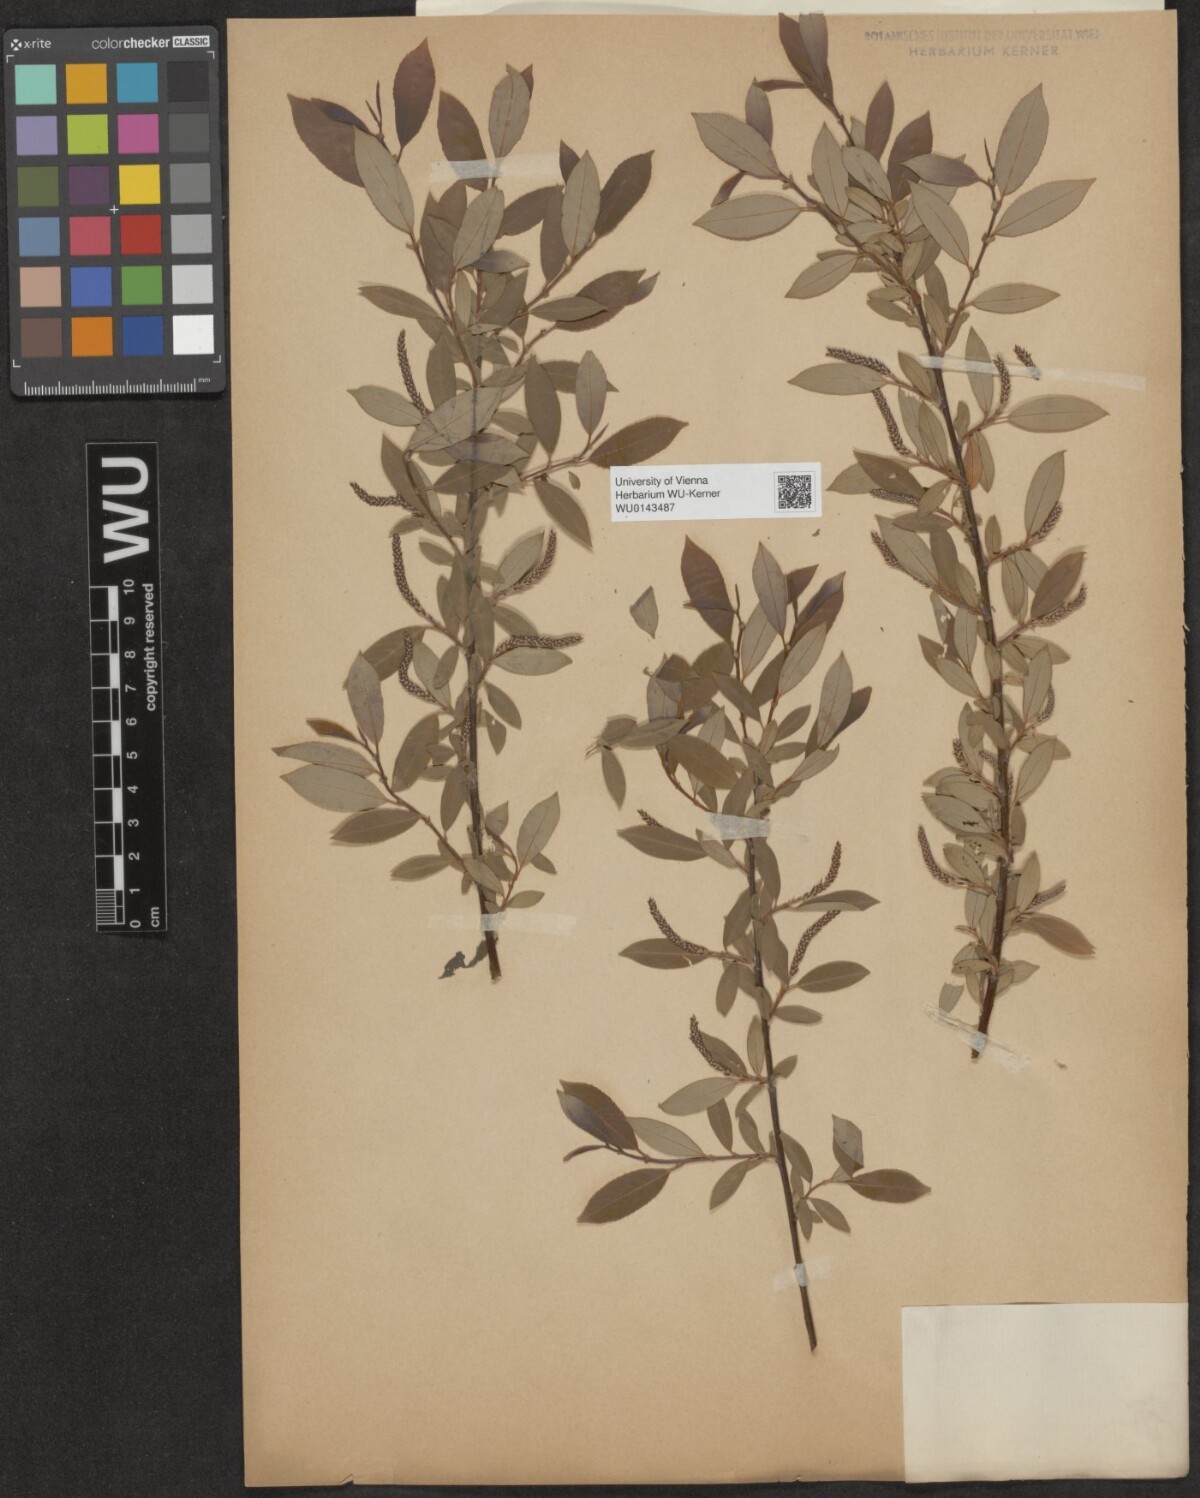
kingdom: Plantae
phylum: Tracheophyta
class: Magnoliopsida
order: Malpighiales
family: Salicaceae
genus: Salix
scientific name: Salix triandra
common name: Almond willow
